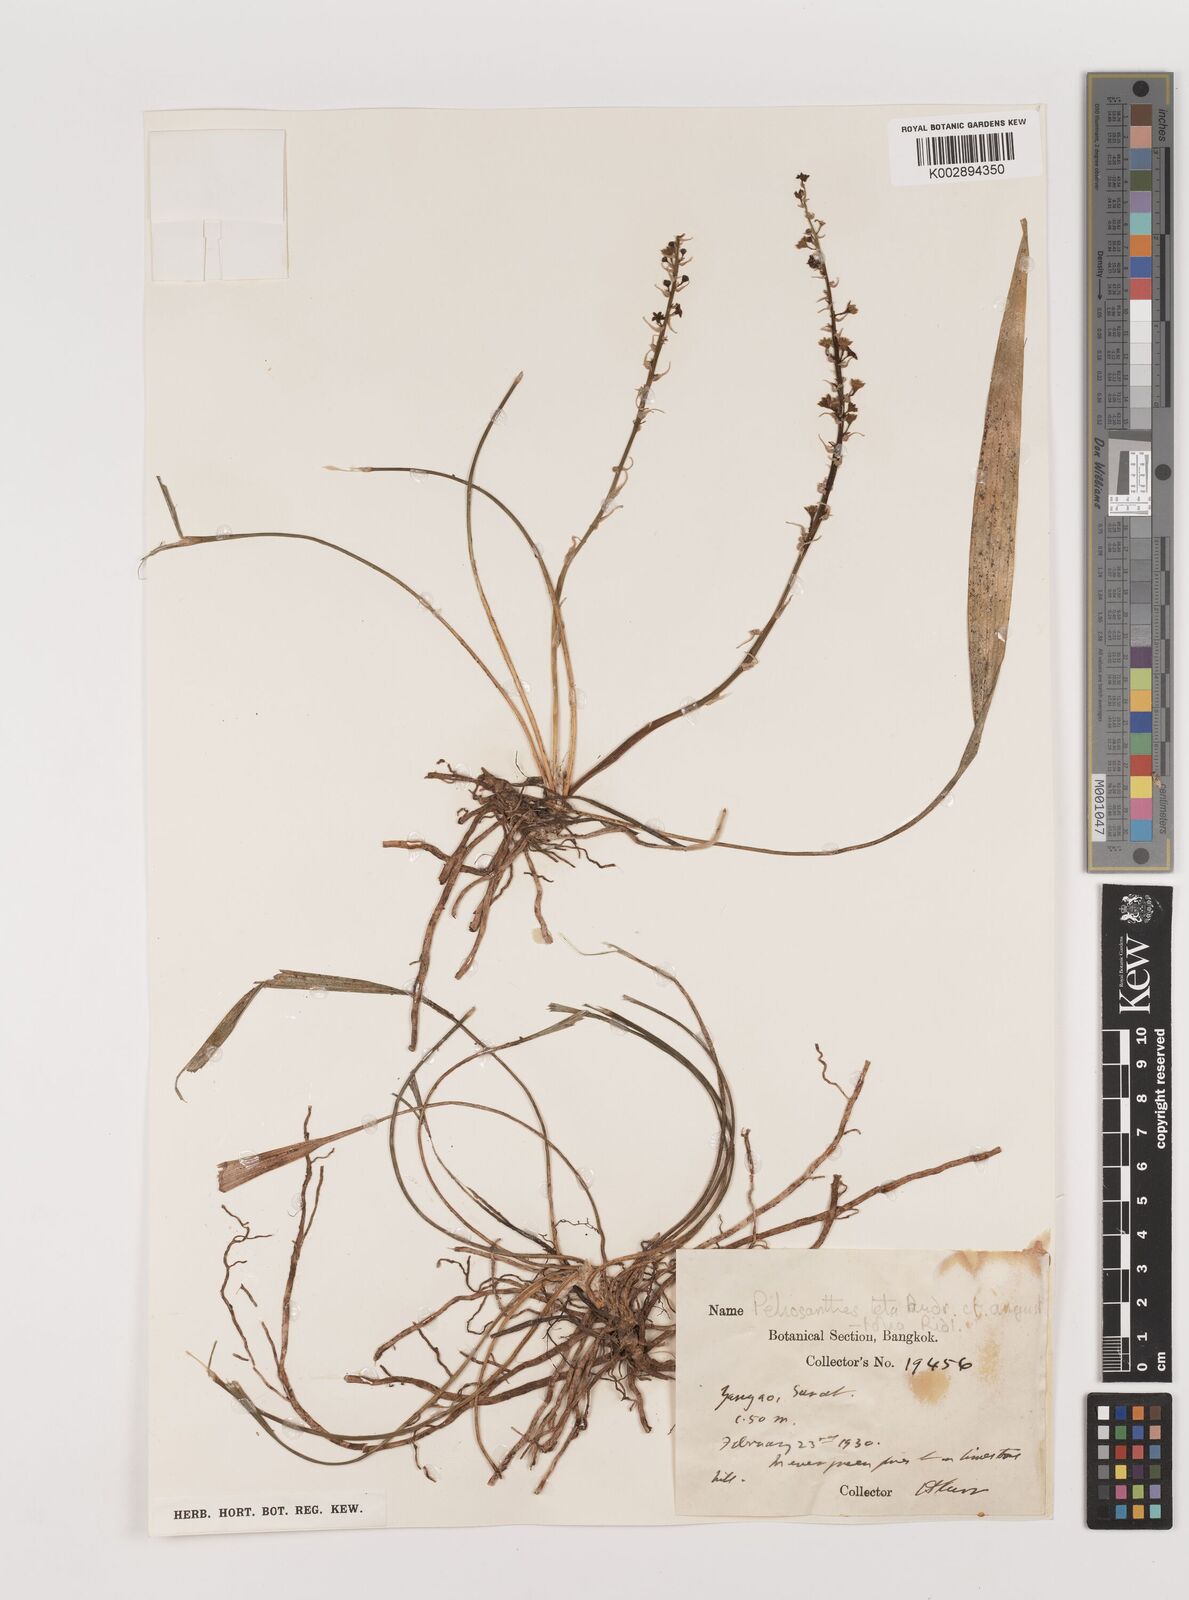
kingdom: Plantae
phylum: Tracheophyta
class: Liliopsida
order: Asparagales
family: Asparagaceae
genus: Peliosanthes
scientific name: Peliosanthes teta
